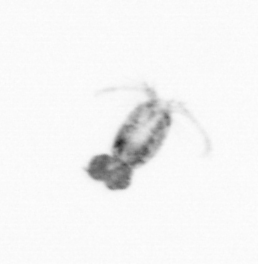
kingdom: Animalia
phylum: Arthropoda
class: Copepoda
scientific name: Copepoda
